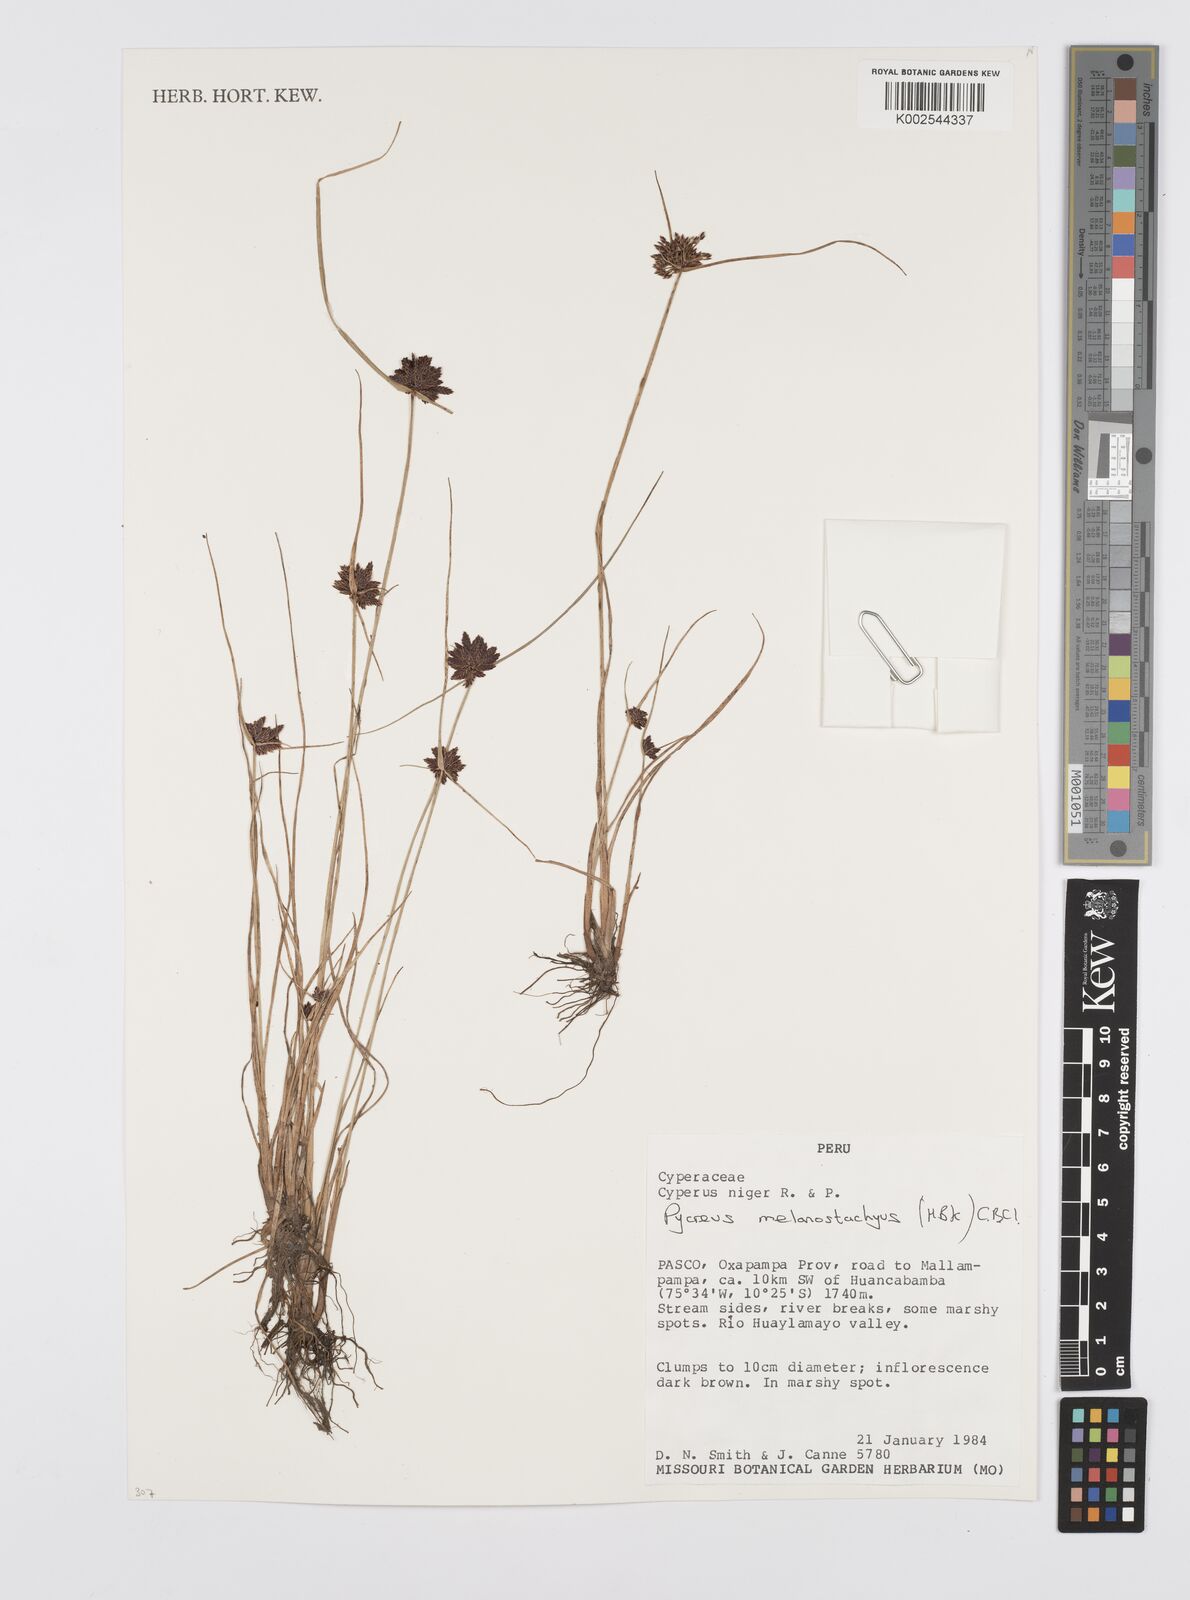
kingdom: Plantae
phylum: Tracheophyta
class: Liliopsida
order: Poales
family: Cyperaceae
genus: Cyperus
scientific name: Cyperus melanostachyus
